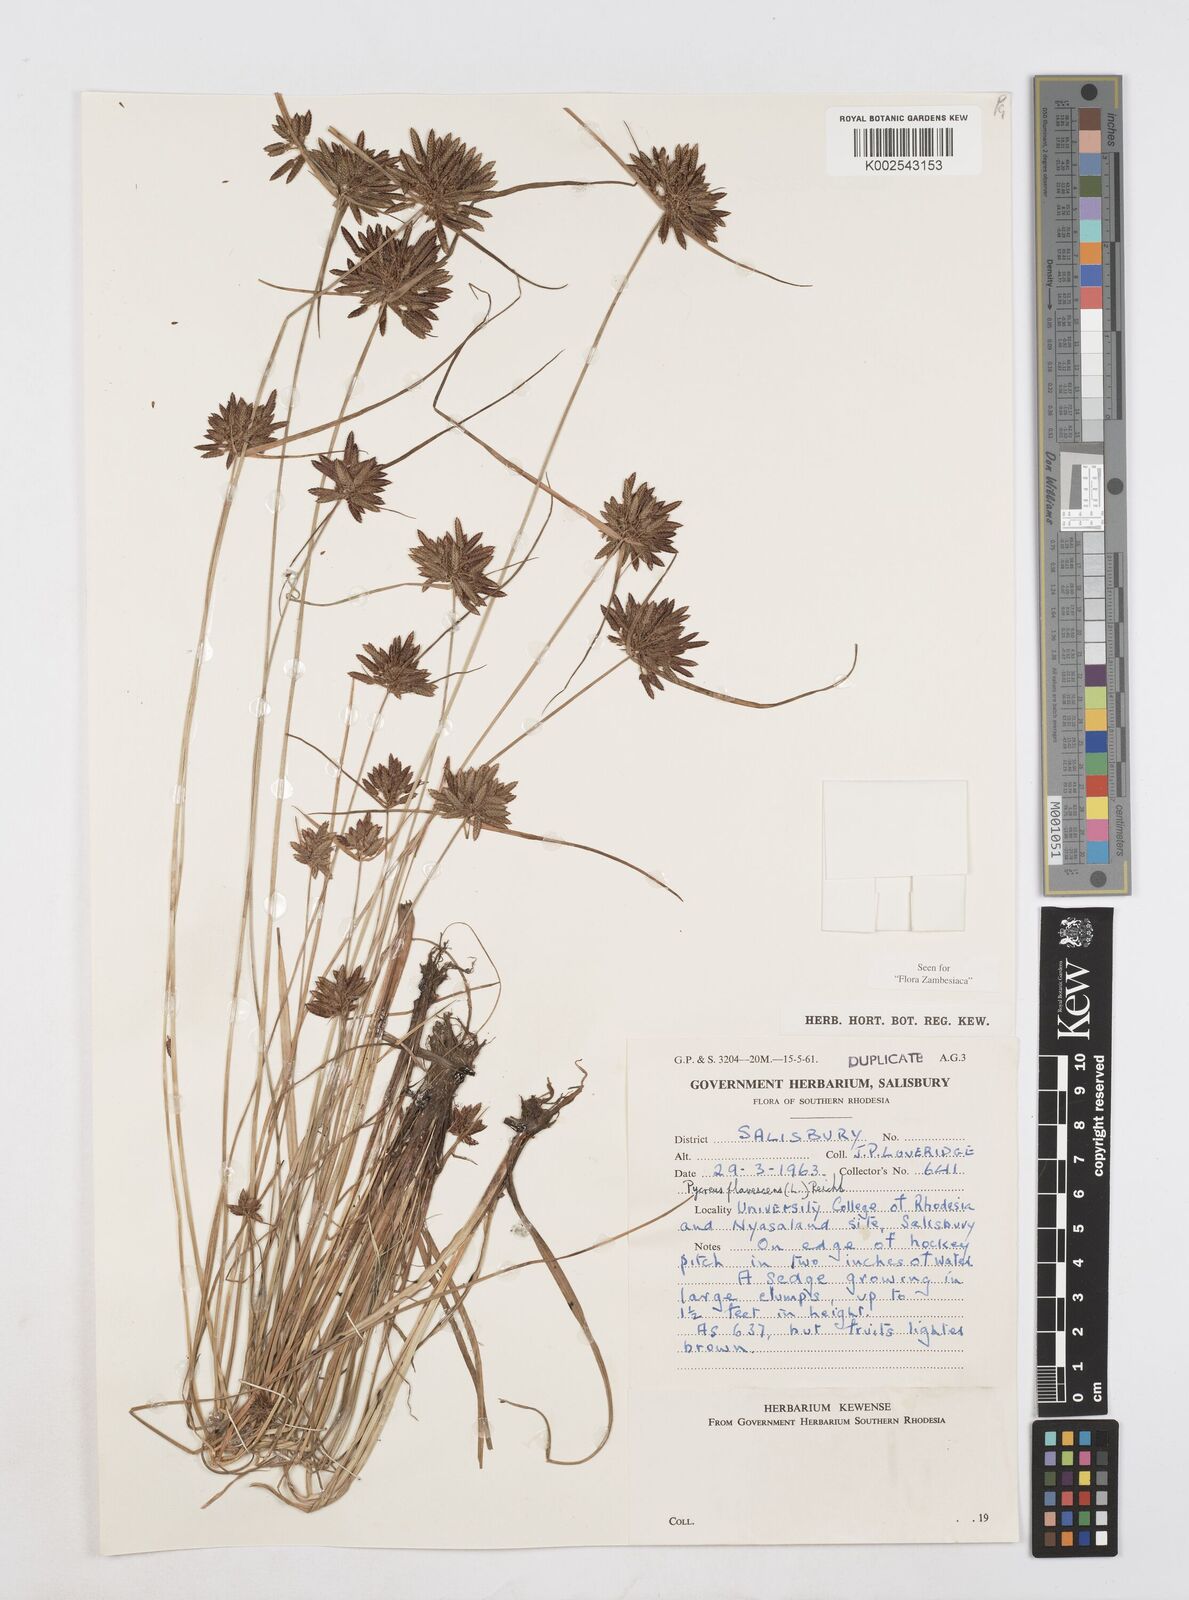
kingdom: Plantae
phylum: Tracheophyta
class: Liliopsida
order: Poales
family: Cyperaceae
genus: Cyperus
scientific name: Cyperus flavescens
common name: Yellow galingale
